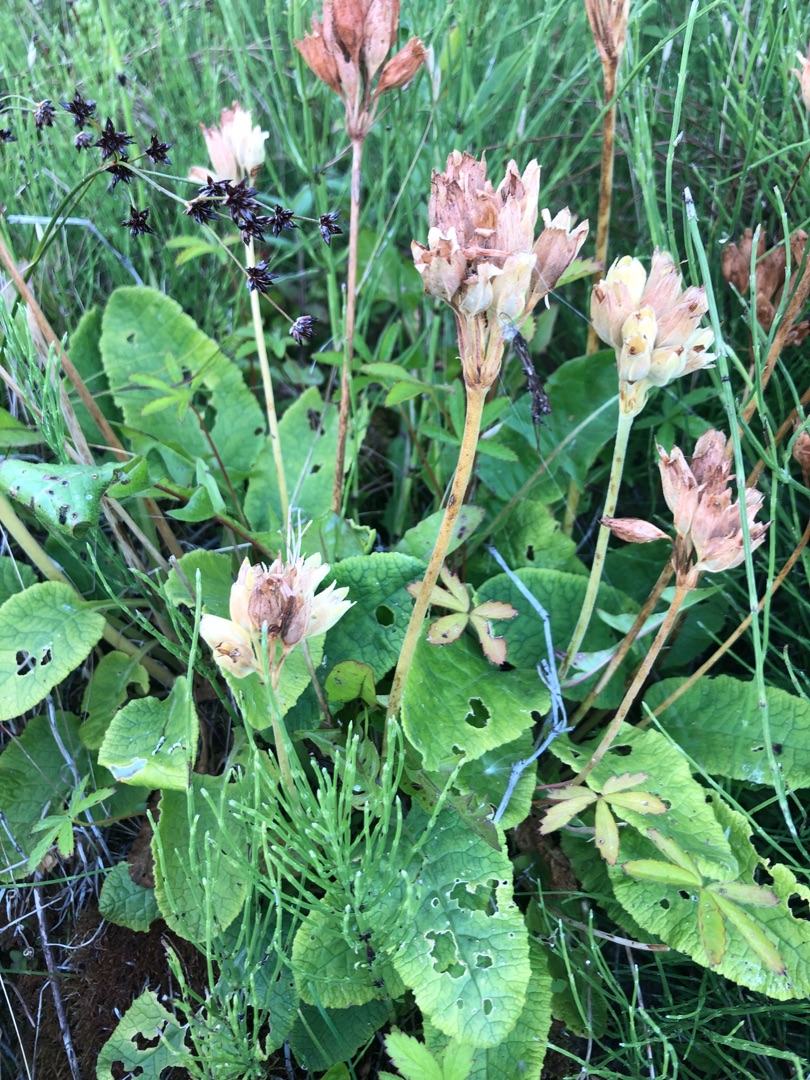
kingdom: Plantae
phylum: Tracheophyta
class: Magnoliopsida
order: Ericales
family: Primulaceae
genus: Primula
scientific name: Primula veris
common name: Hulkravet kodriver
